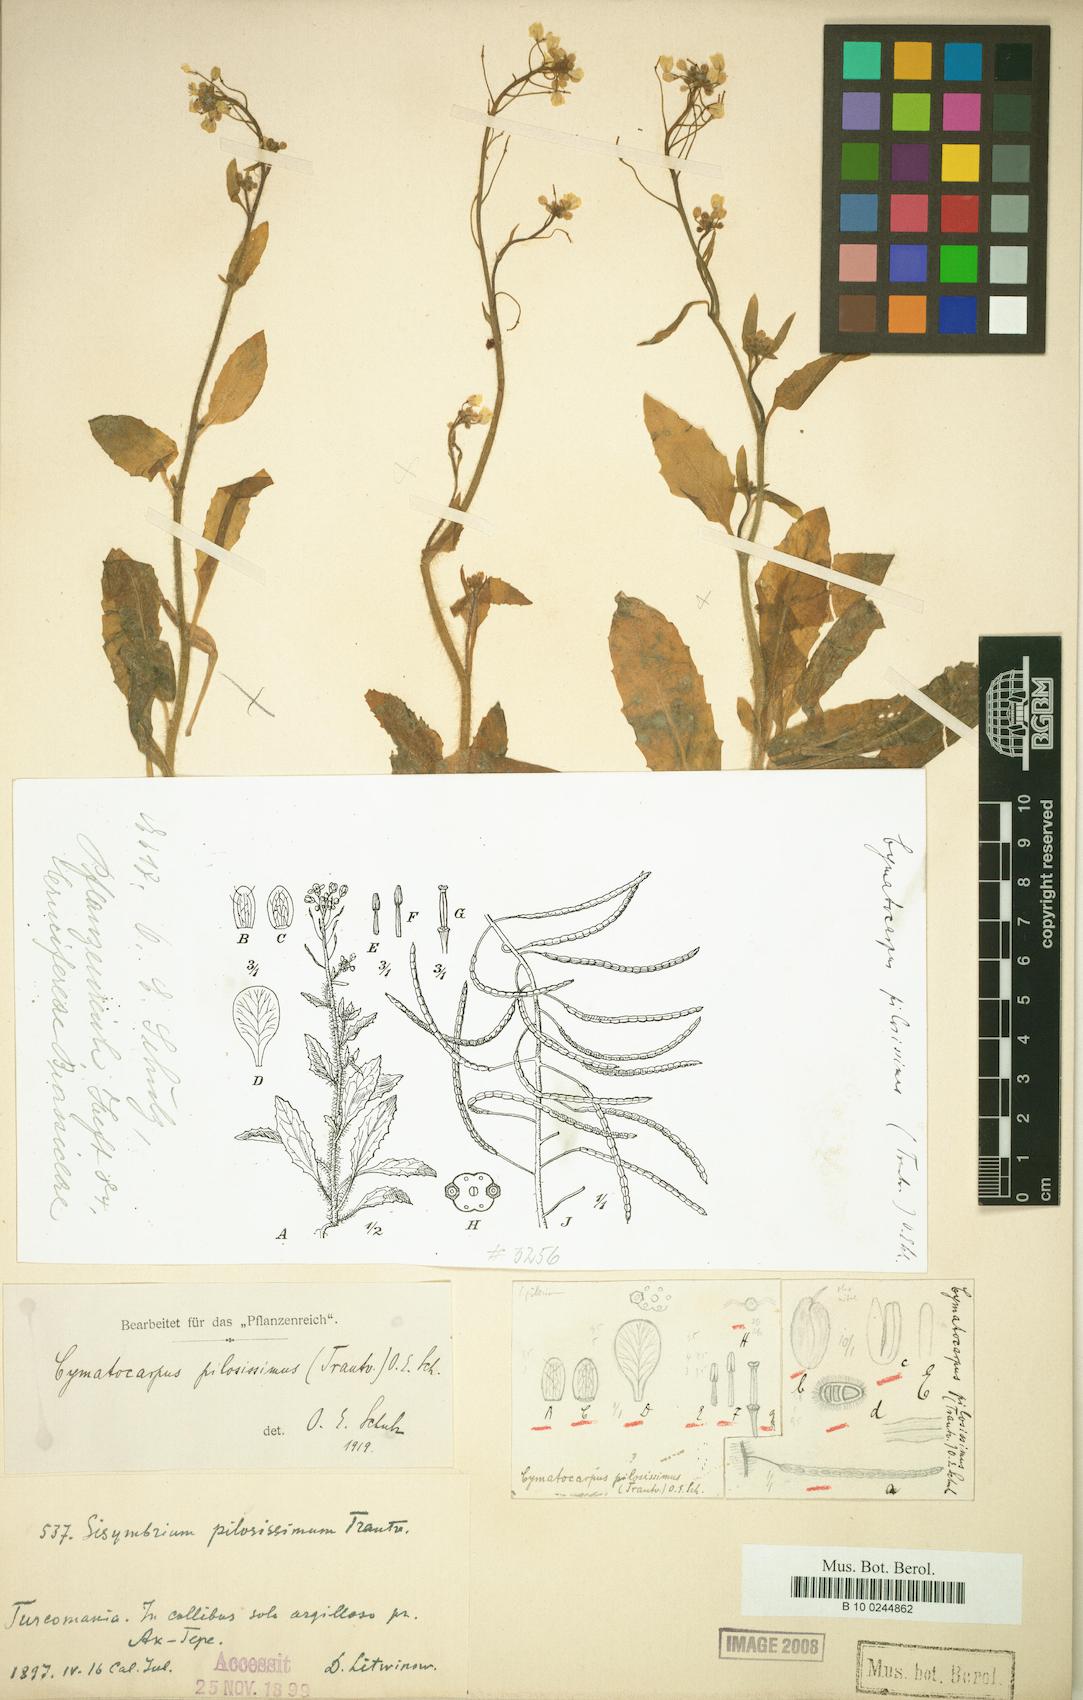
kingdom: Plantae
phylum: Tracheophyta
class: Magnoliopsida
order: Brassicales
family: Brassicaceae
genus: Cymatocarpus
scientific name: Cymatocarpus pilosissimus
